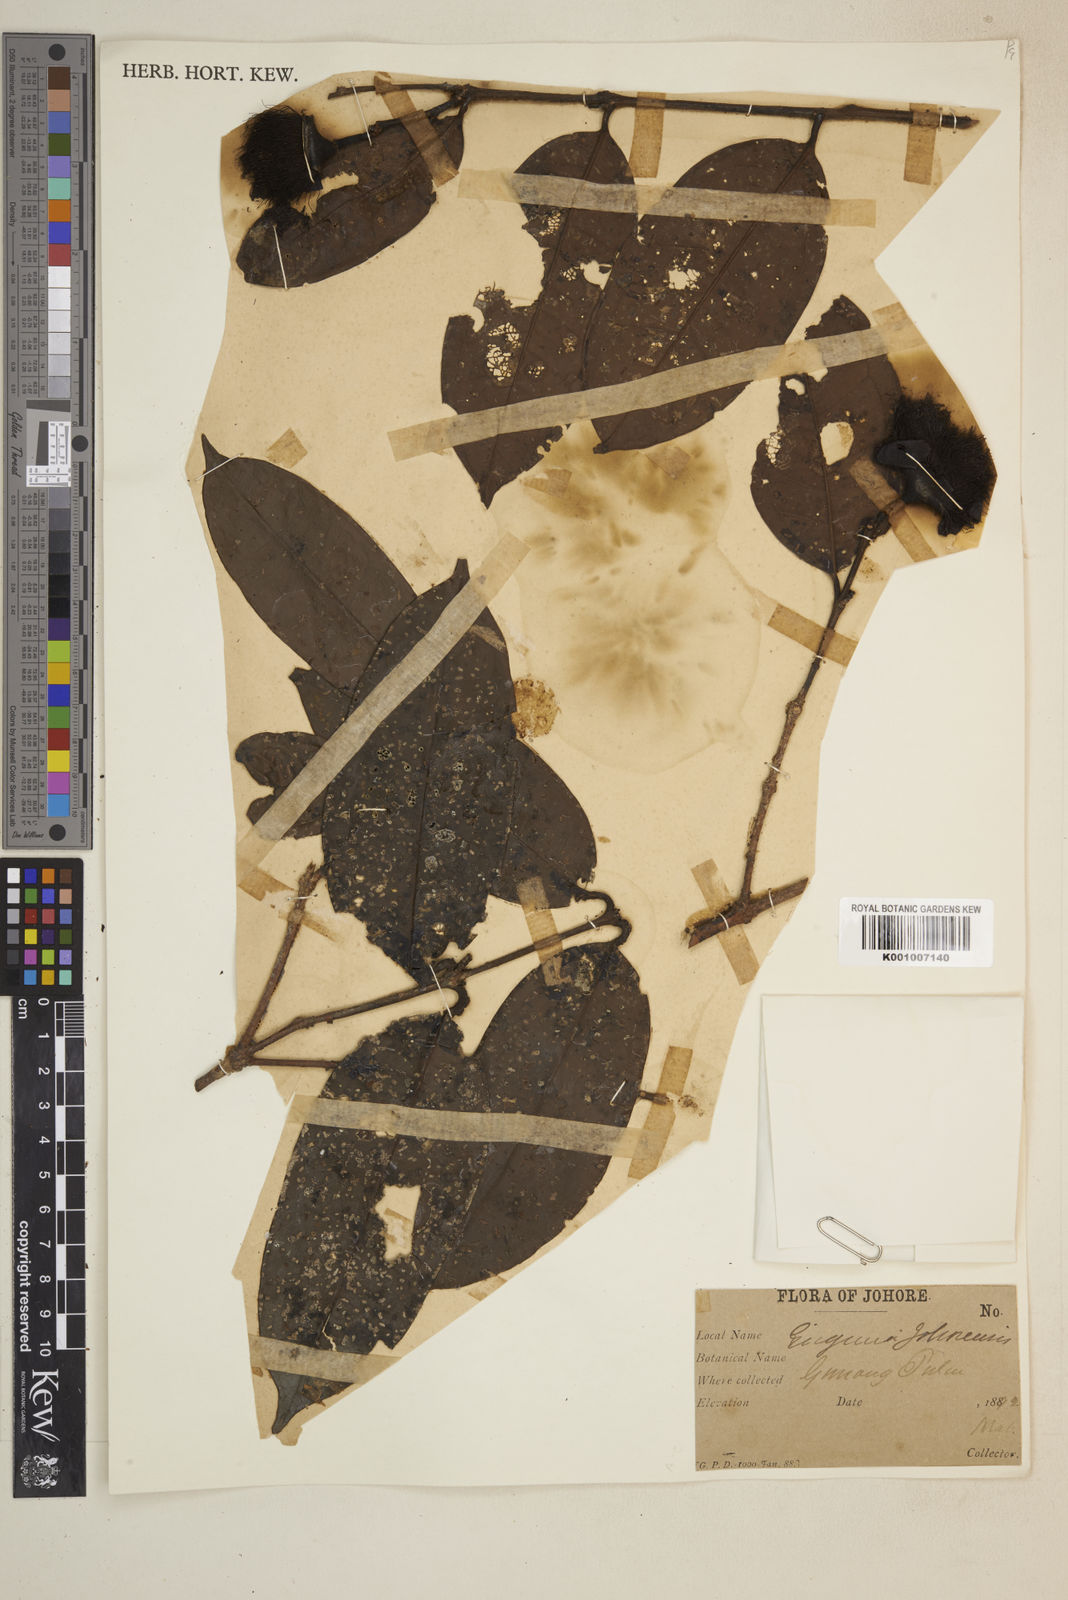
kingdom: Plantae
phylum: Tracheophyta
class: Magnoliopsida
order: Myrtales
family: Myrtaceae
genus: Syzygium
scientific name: Syzygium pulaiense
